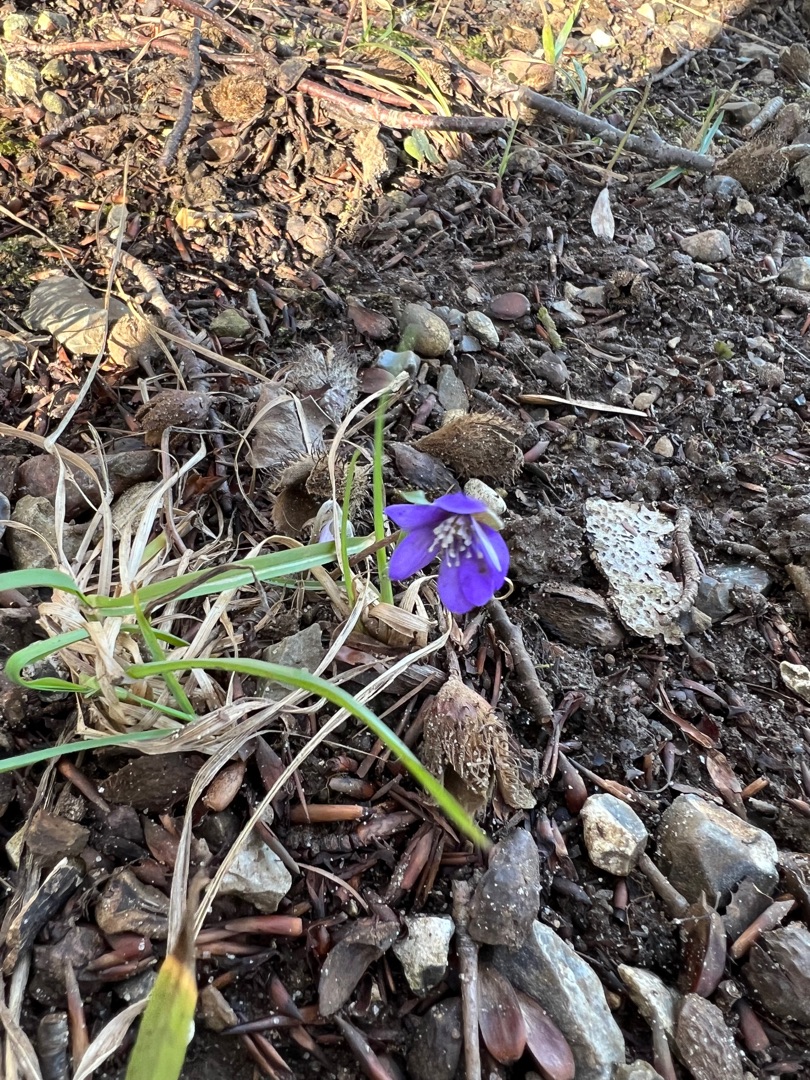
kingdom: Plantae
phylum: Tracheophyta
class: Magnoliopsida
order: Ranunculales
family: Ranunculaceae
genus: Hepatica
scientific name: Hepatica nobilis
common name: Blå anemone
